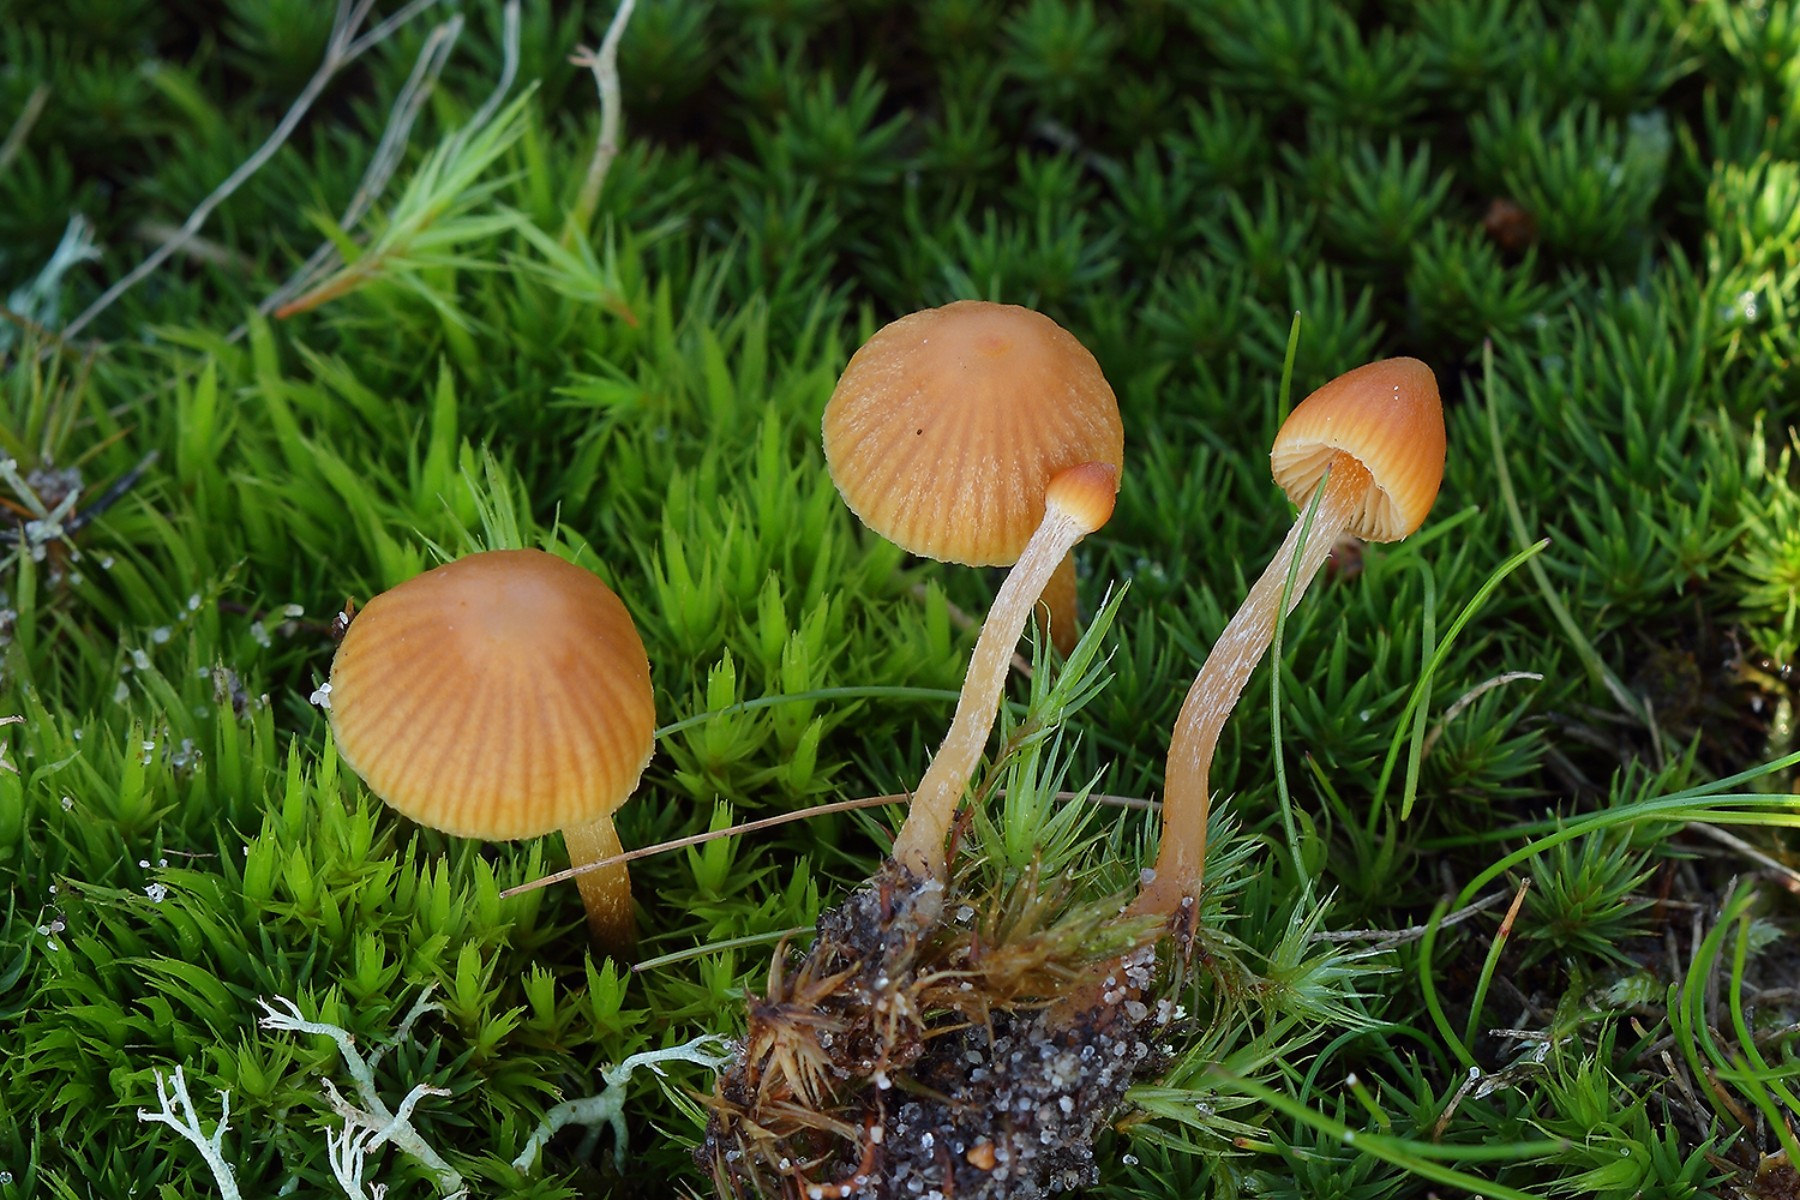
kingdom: Fungi
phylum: Basidiomycota
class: Agaricomycetes
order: Agaricales
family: Hymenogastraceae
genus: Galerina
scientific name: Galerina calyptrata
